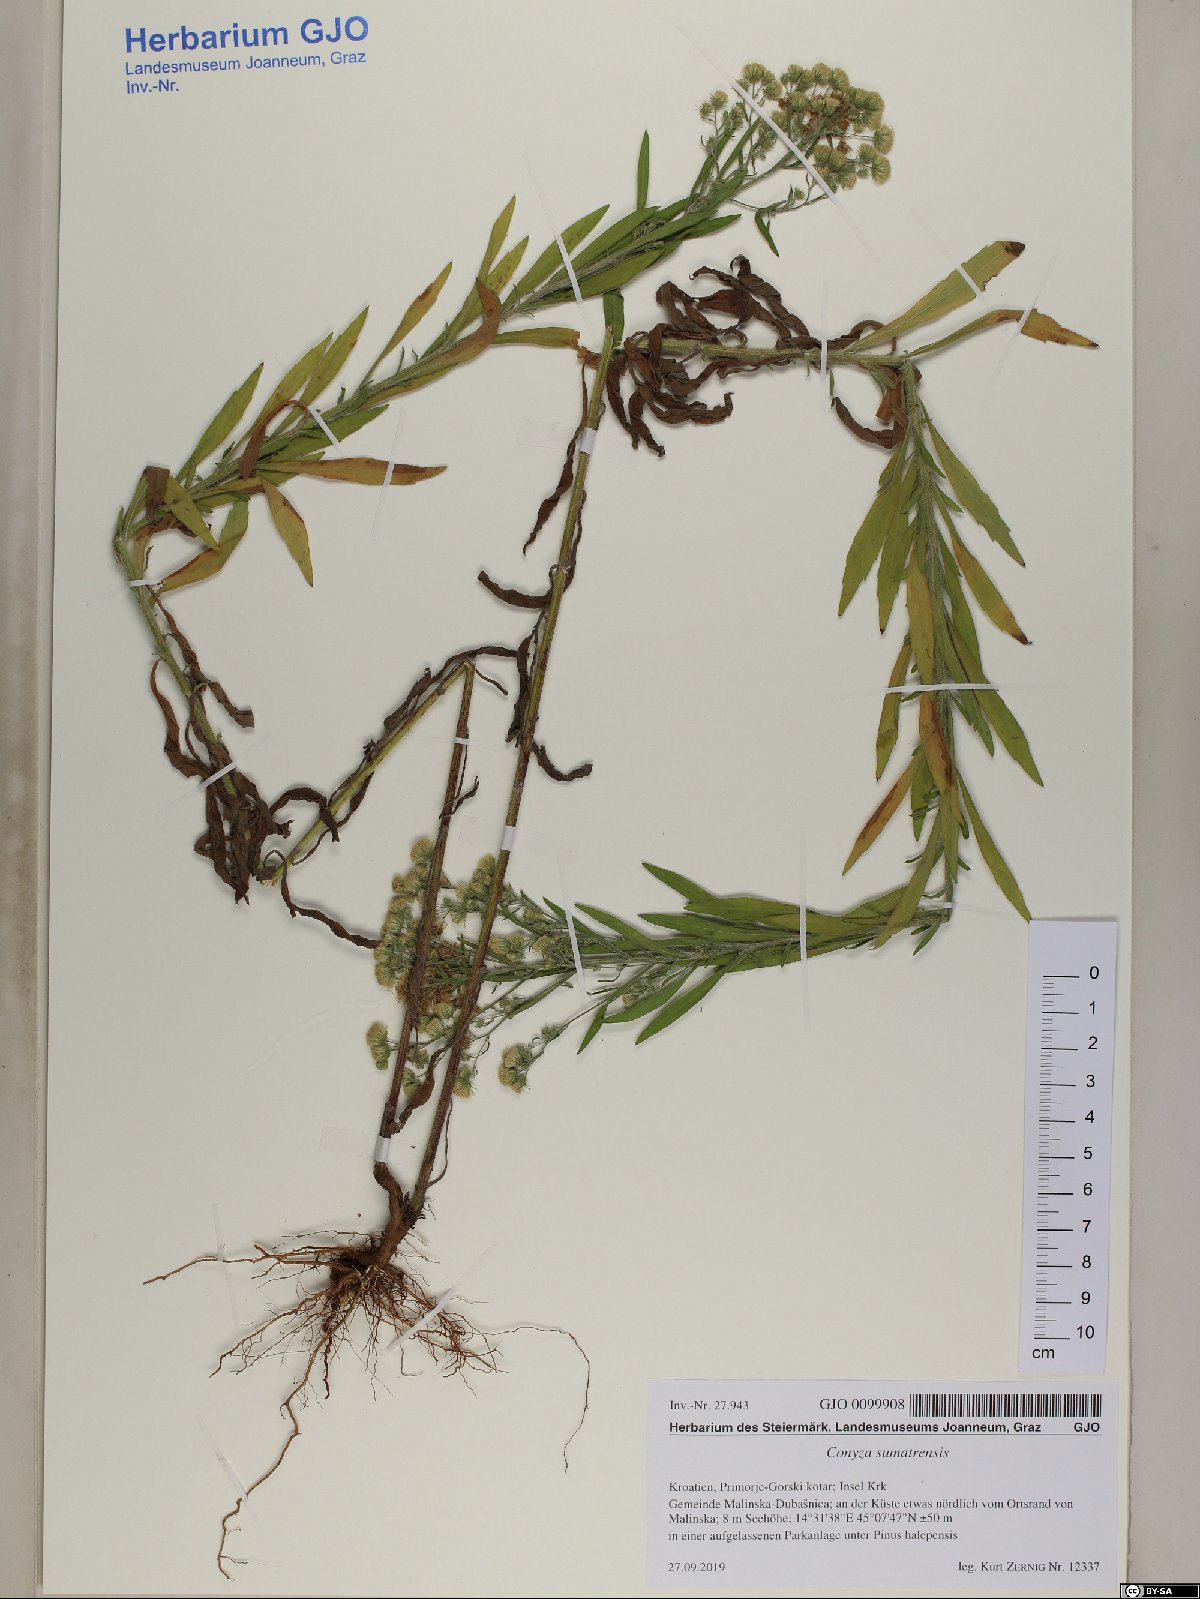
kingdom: Plantae
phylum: Tracheophyta
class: Magnoliopsida
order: Asterales
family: Asteraceae
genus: Erigeron
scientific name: Erigeron sumatrensis
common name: Daisy
